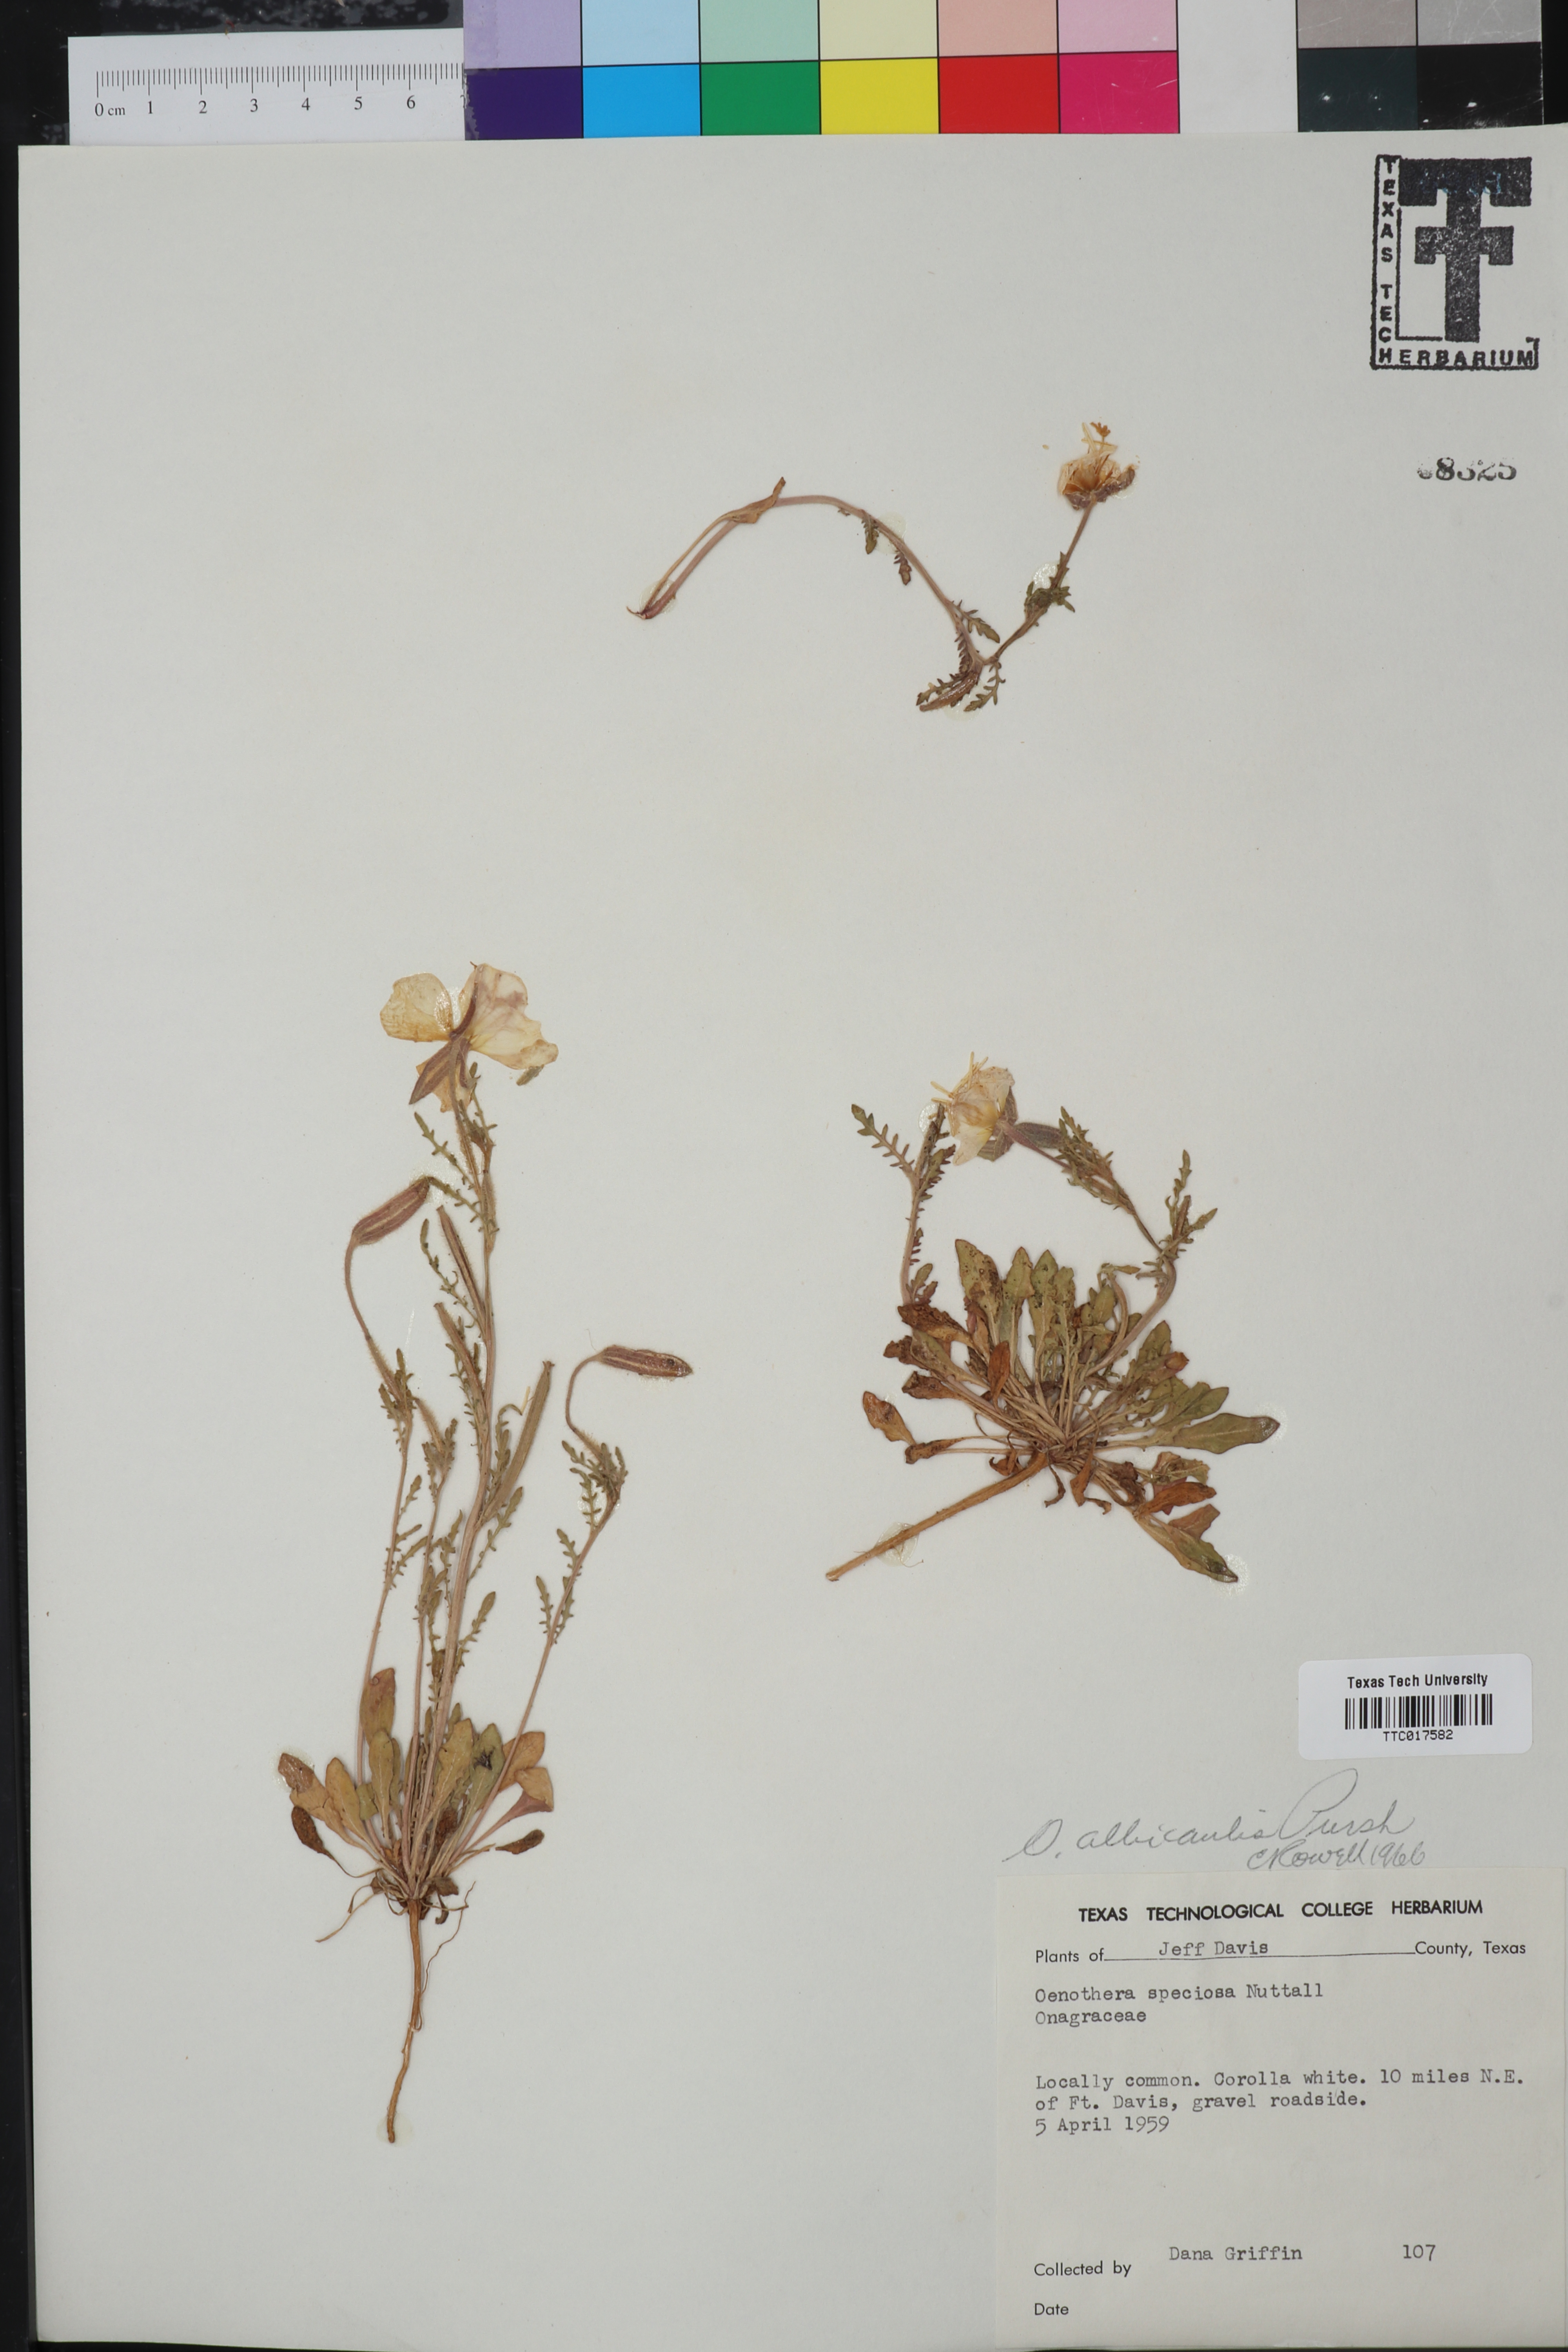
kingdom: Plantae
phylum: Tracheophyta
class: Magnoliopsida
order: Myrtales
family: Onagraceae
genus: Oenothera
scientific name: Oenothera albicaulis
